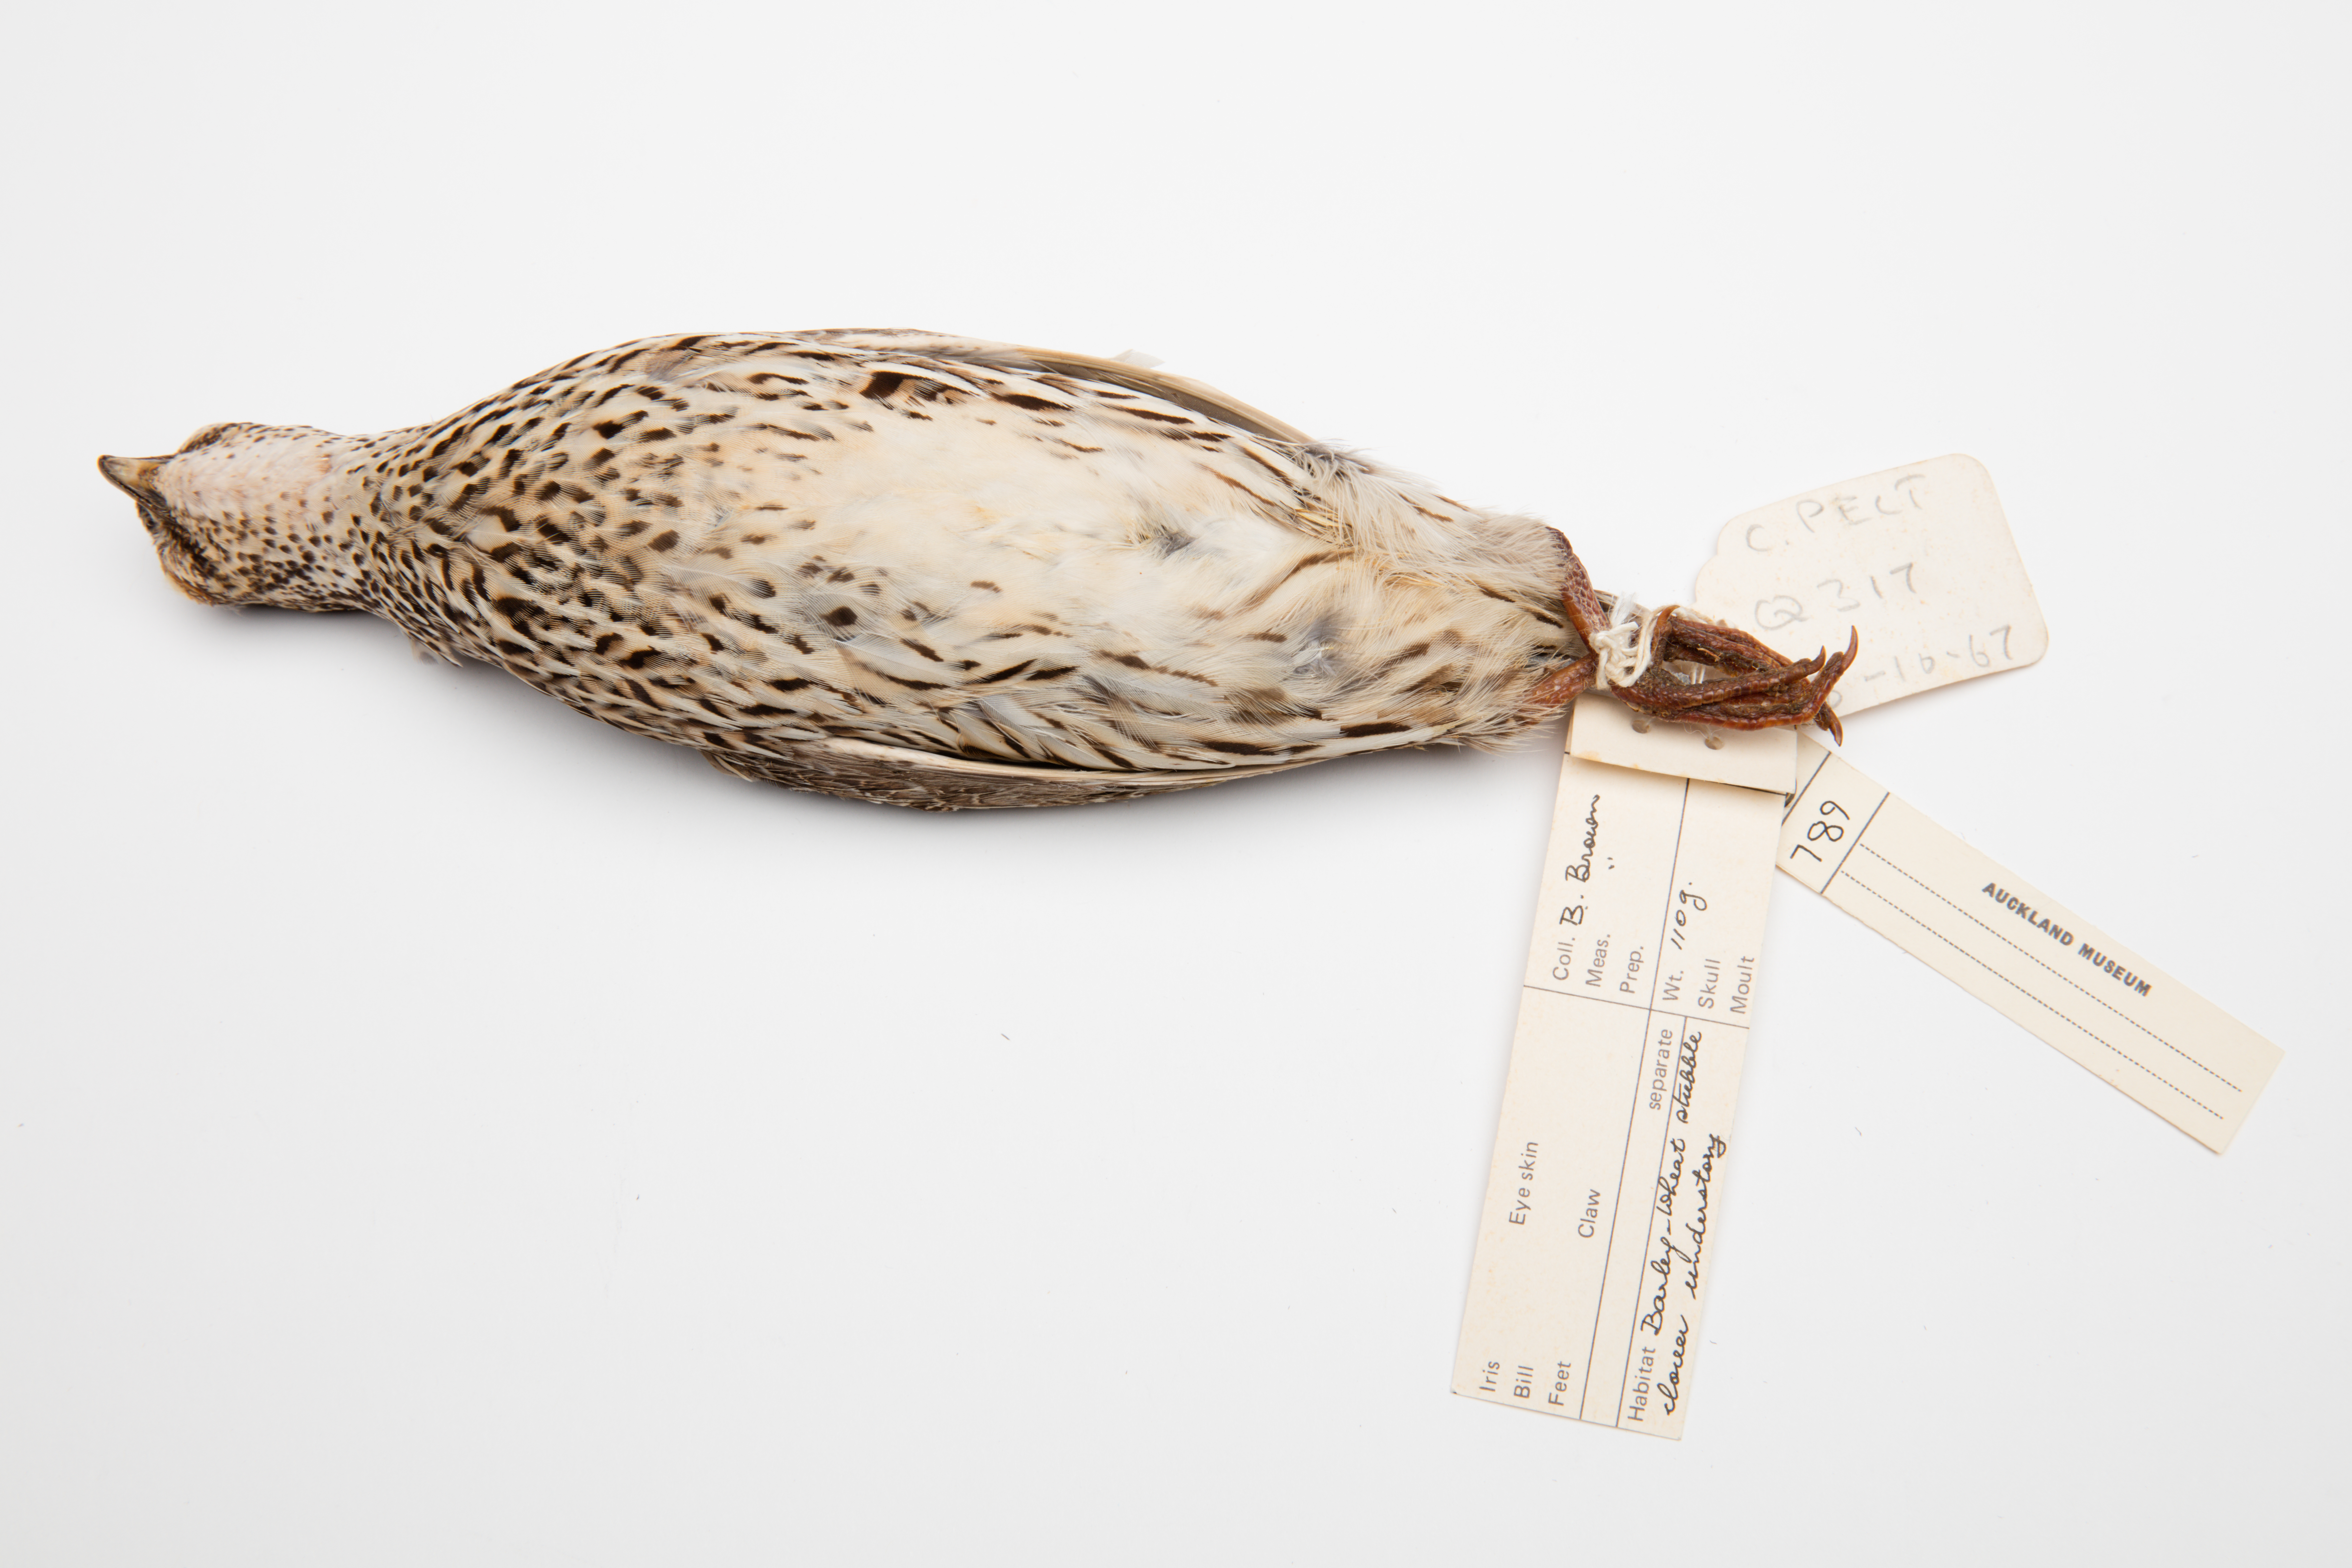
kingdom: Animalia
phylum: Chordata
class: Aves
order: Galliformes
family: Phasianidae
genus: Coturnix
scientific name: Coturnix pectoralis
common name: Stubble quail
